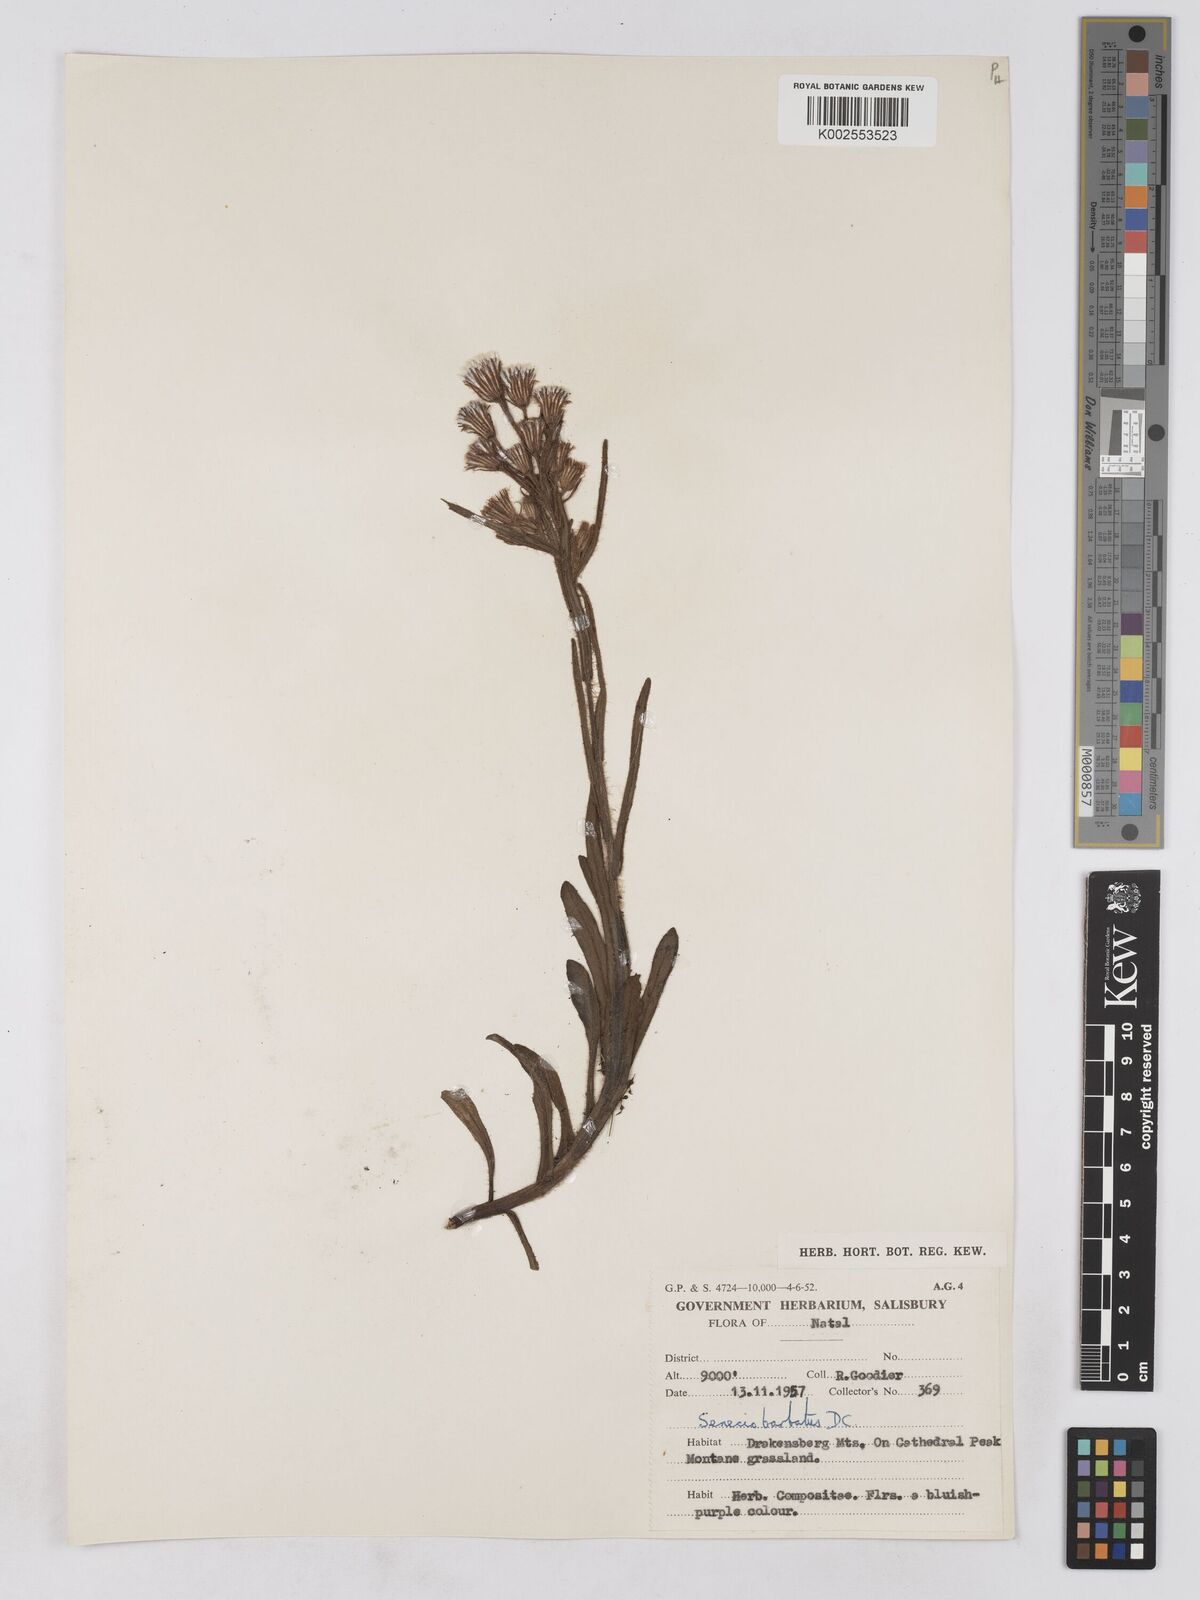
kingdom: Plantae
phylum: Tracheophyta
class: Magnoliopsida
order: Asterales
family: Asteraceae
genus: Senecio
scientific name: Senecio barbatus
